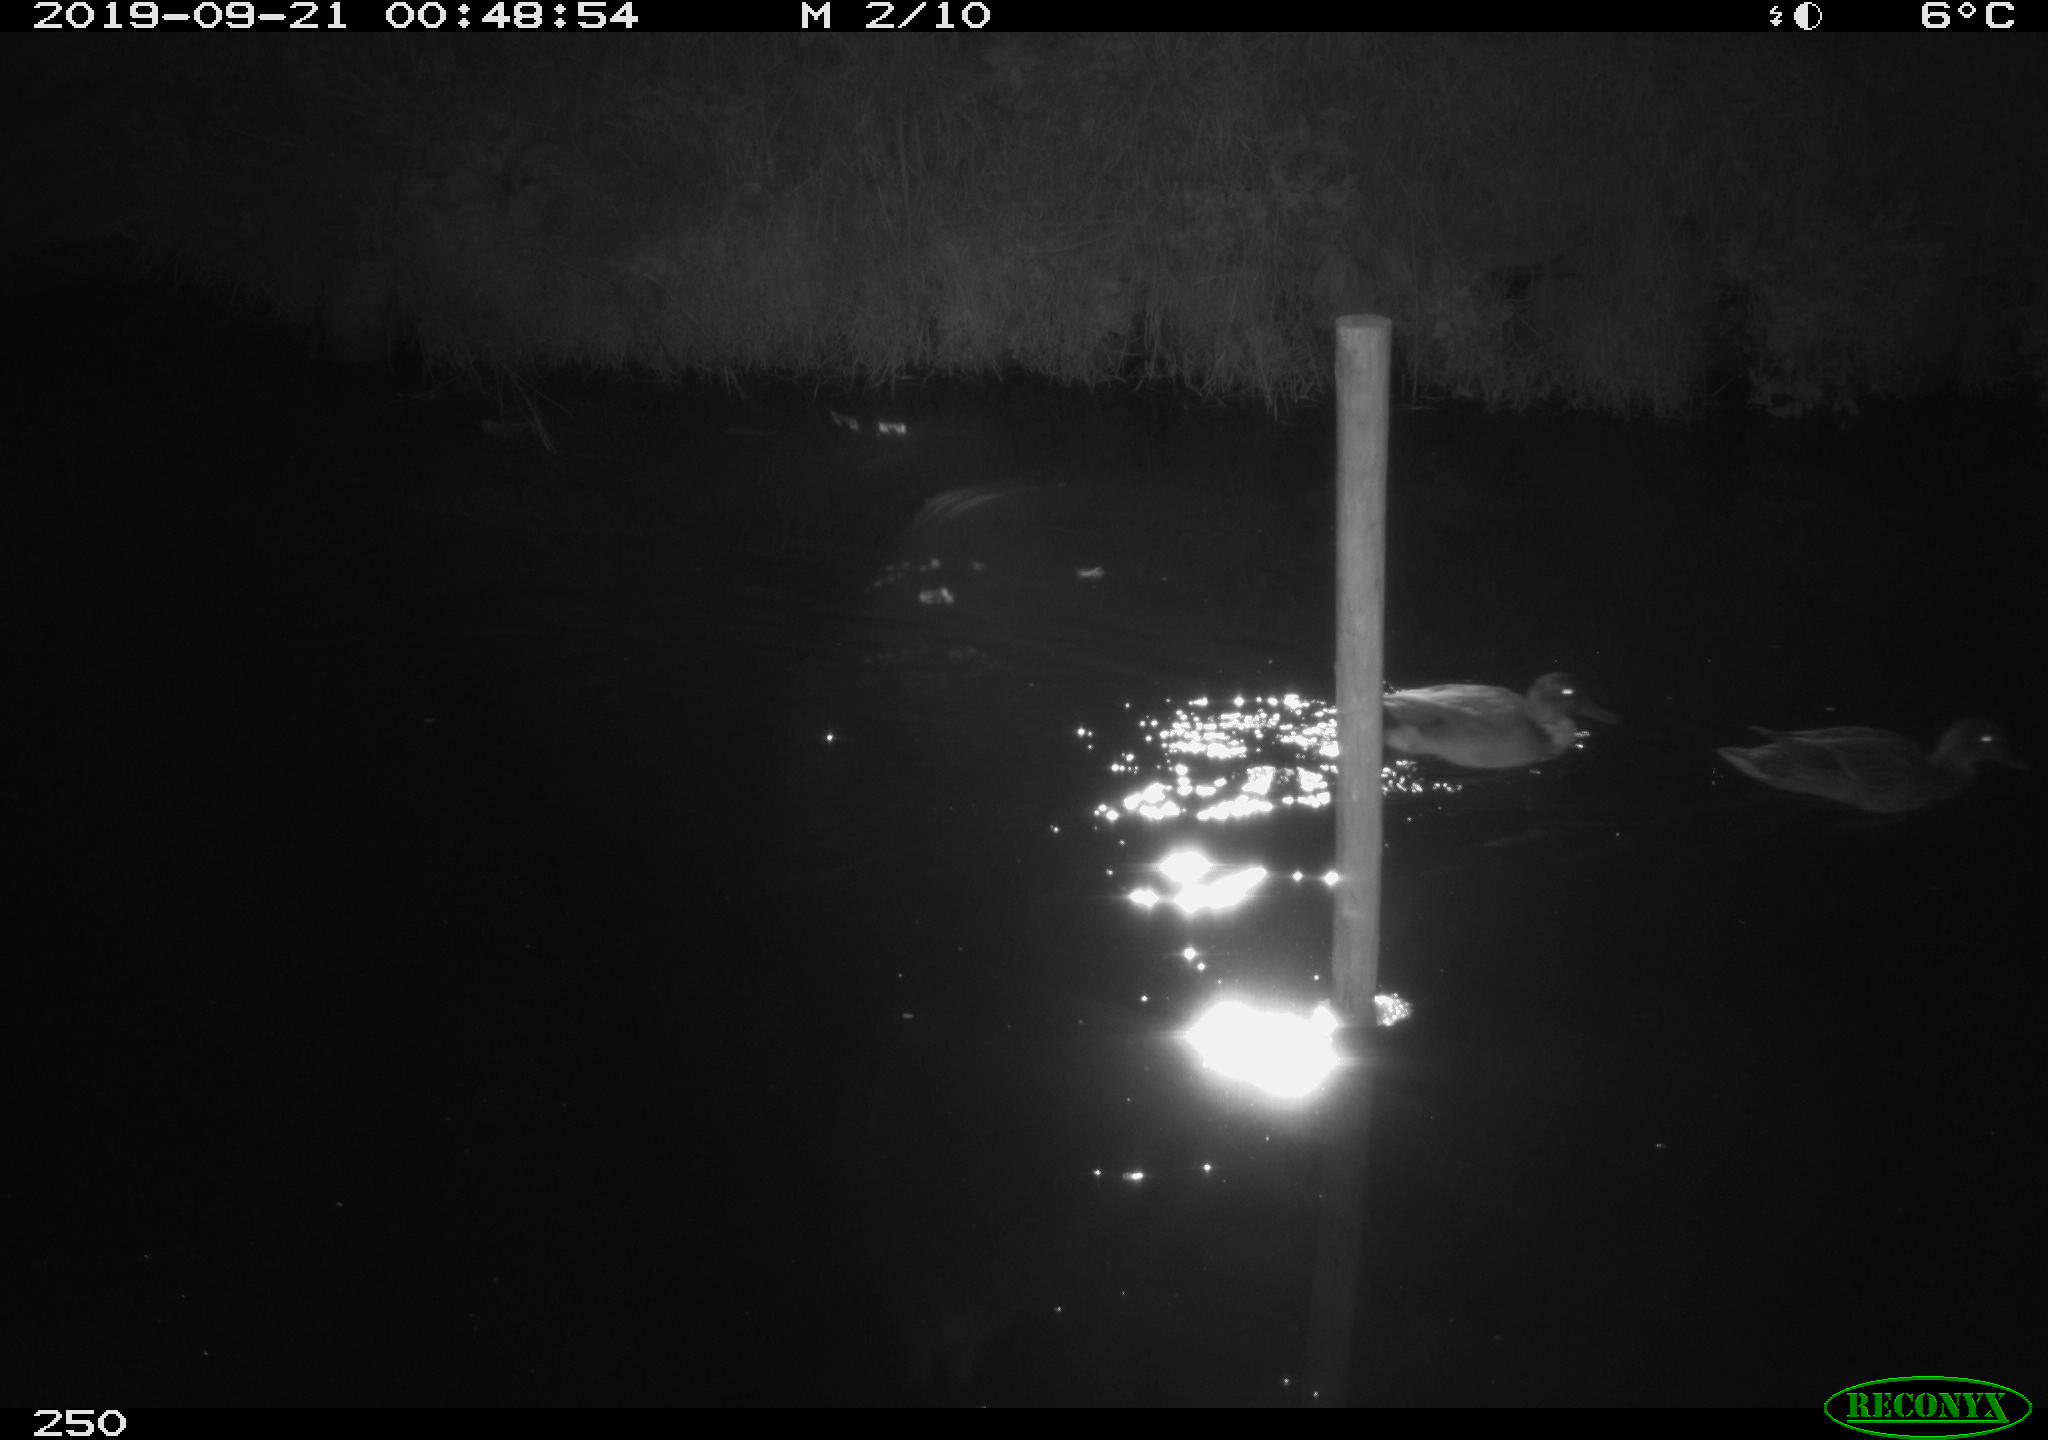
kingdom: Animalia
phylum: Chordata
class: Aves
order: Anseriformes
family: Anatidae
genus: Anas
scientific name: Anas platyrhynchos
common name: Mallard
